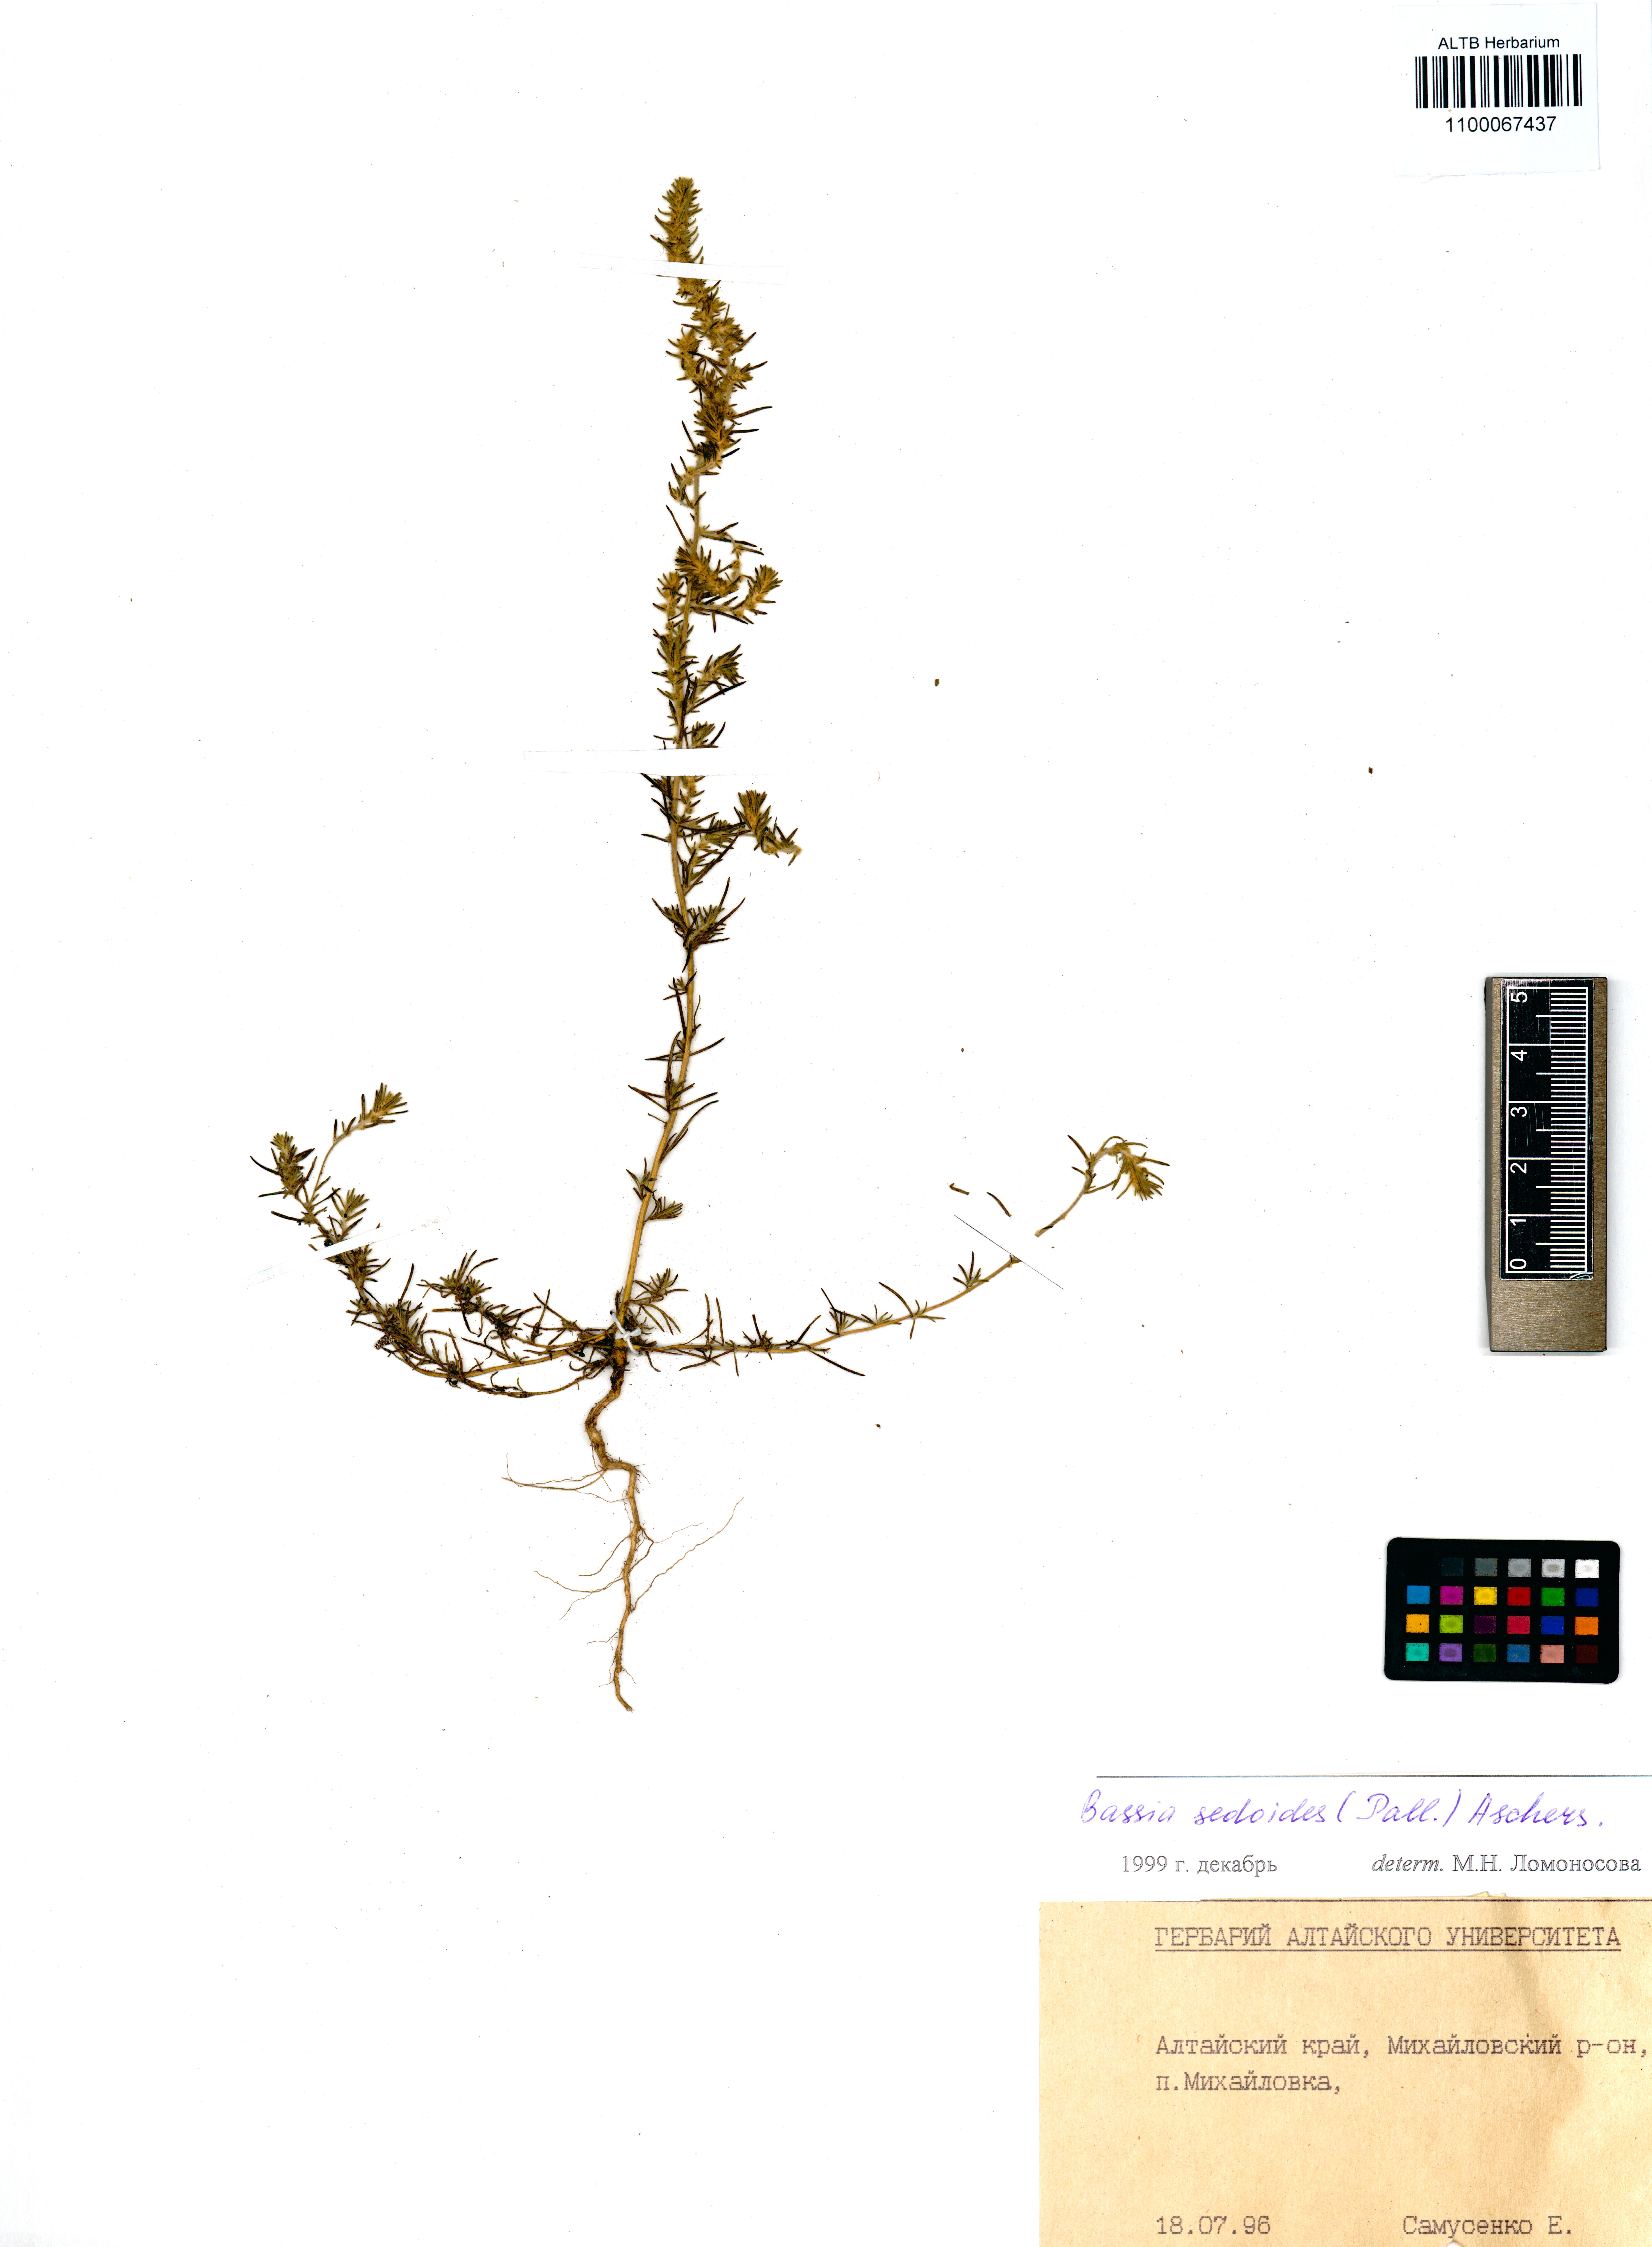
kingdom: Plantae
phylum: Tracheophyta
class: Magnoliopsida
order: Caryophyllales
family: Amaranthaceae
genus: Sedobassia
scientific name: Sedobassia sedoides
